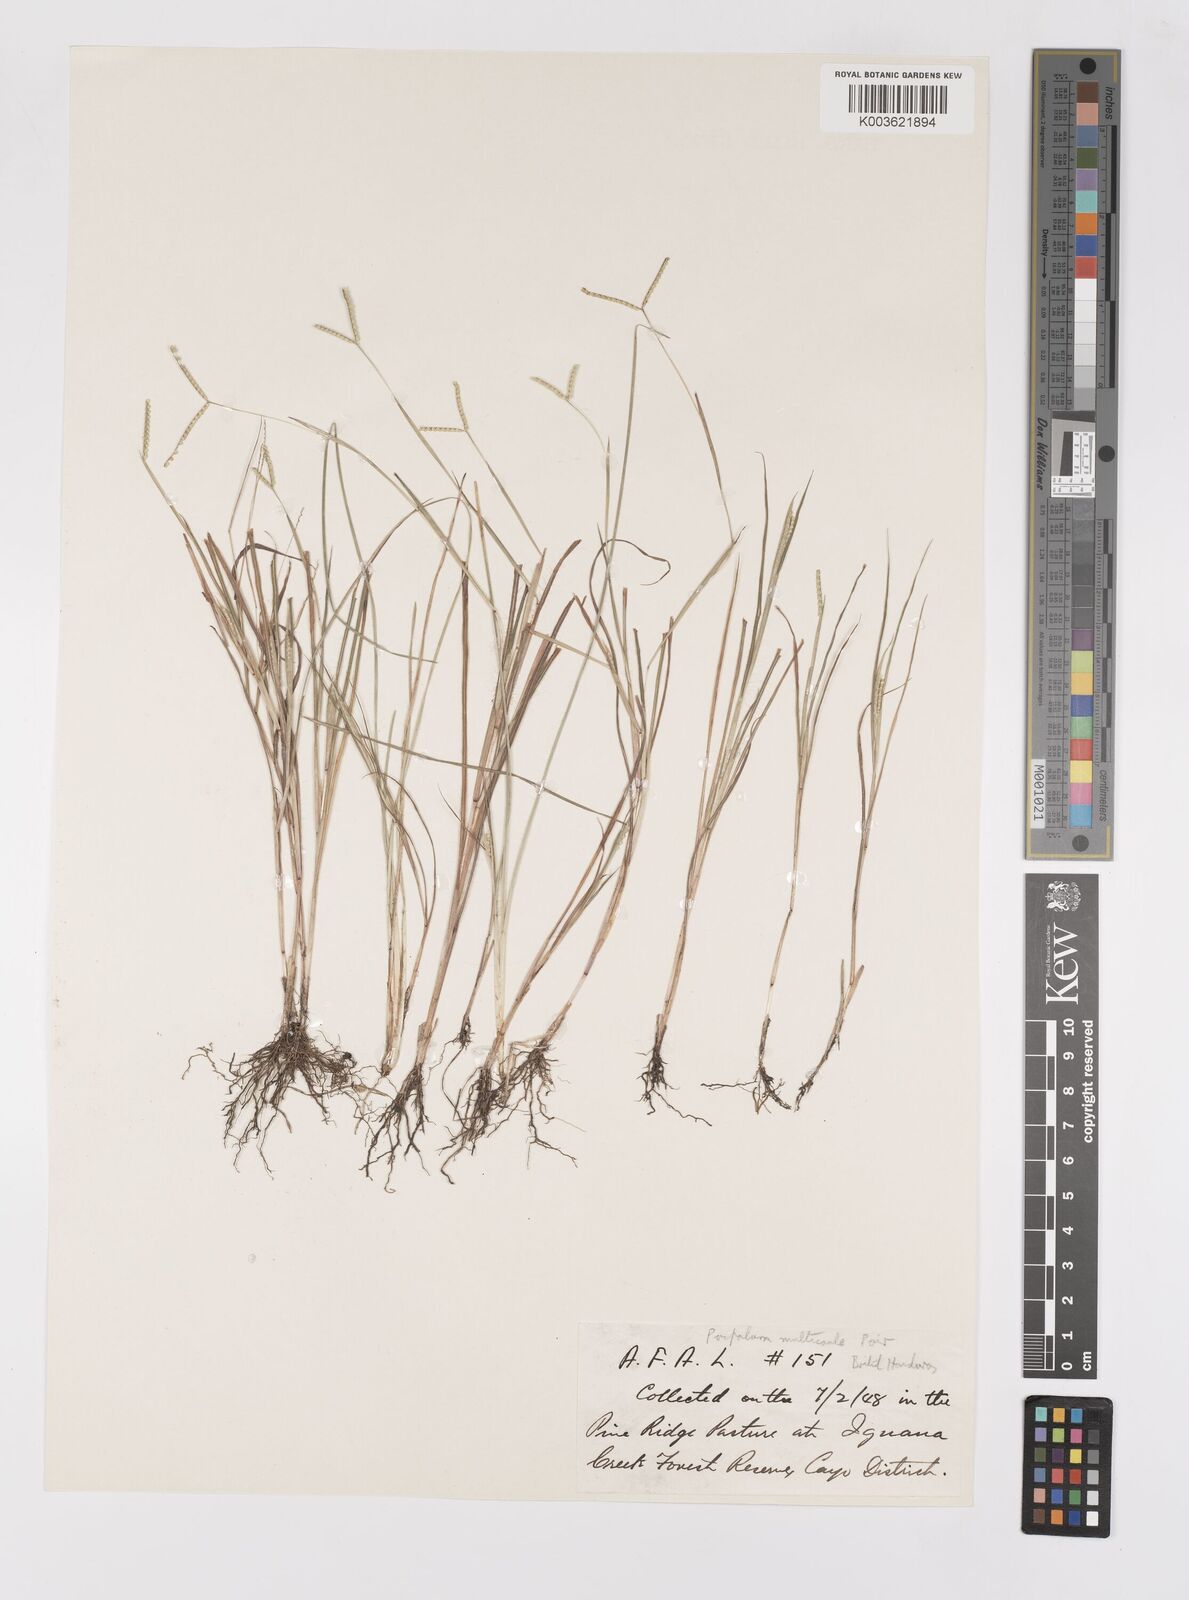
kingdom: Plantae
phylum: Tracheophyta
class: Liliopsida
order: Poales
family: Poaceae
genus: Paspalum
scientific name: Paspalum multicaule
